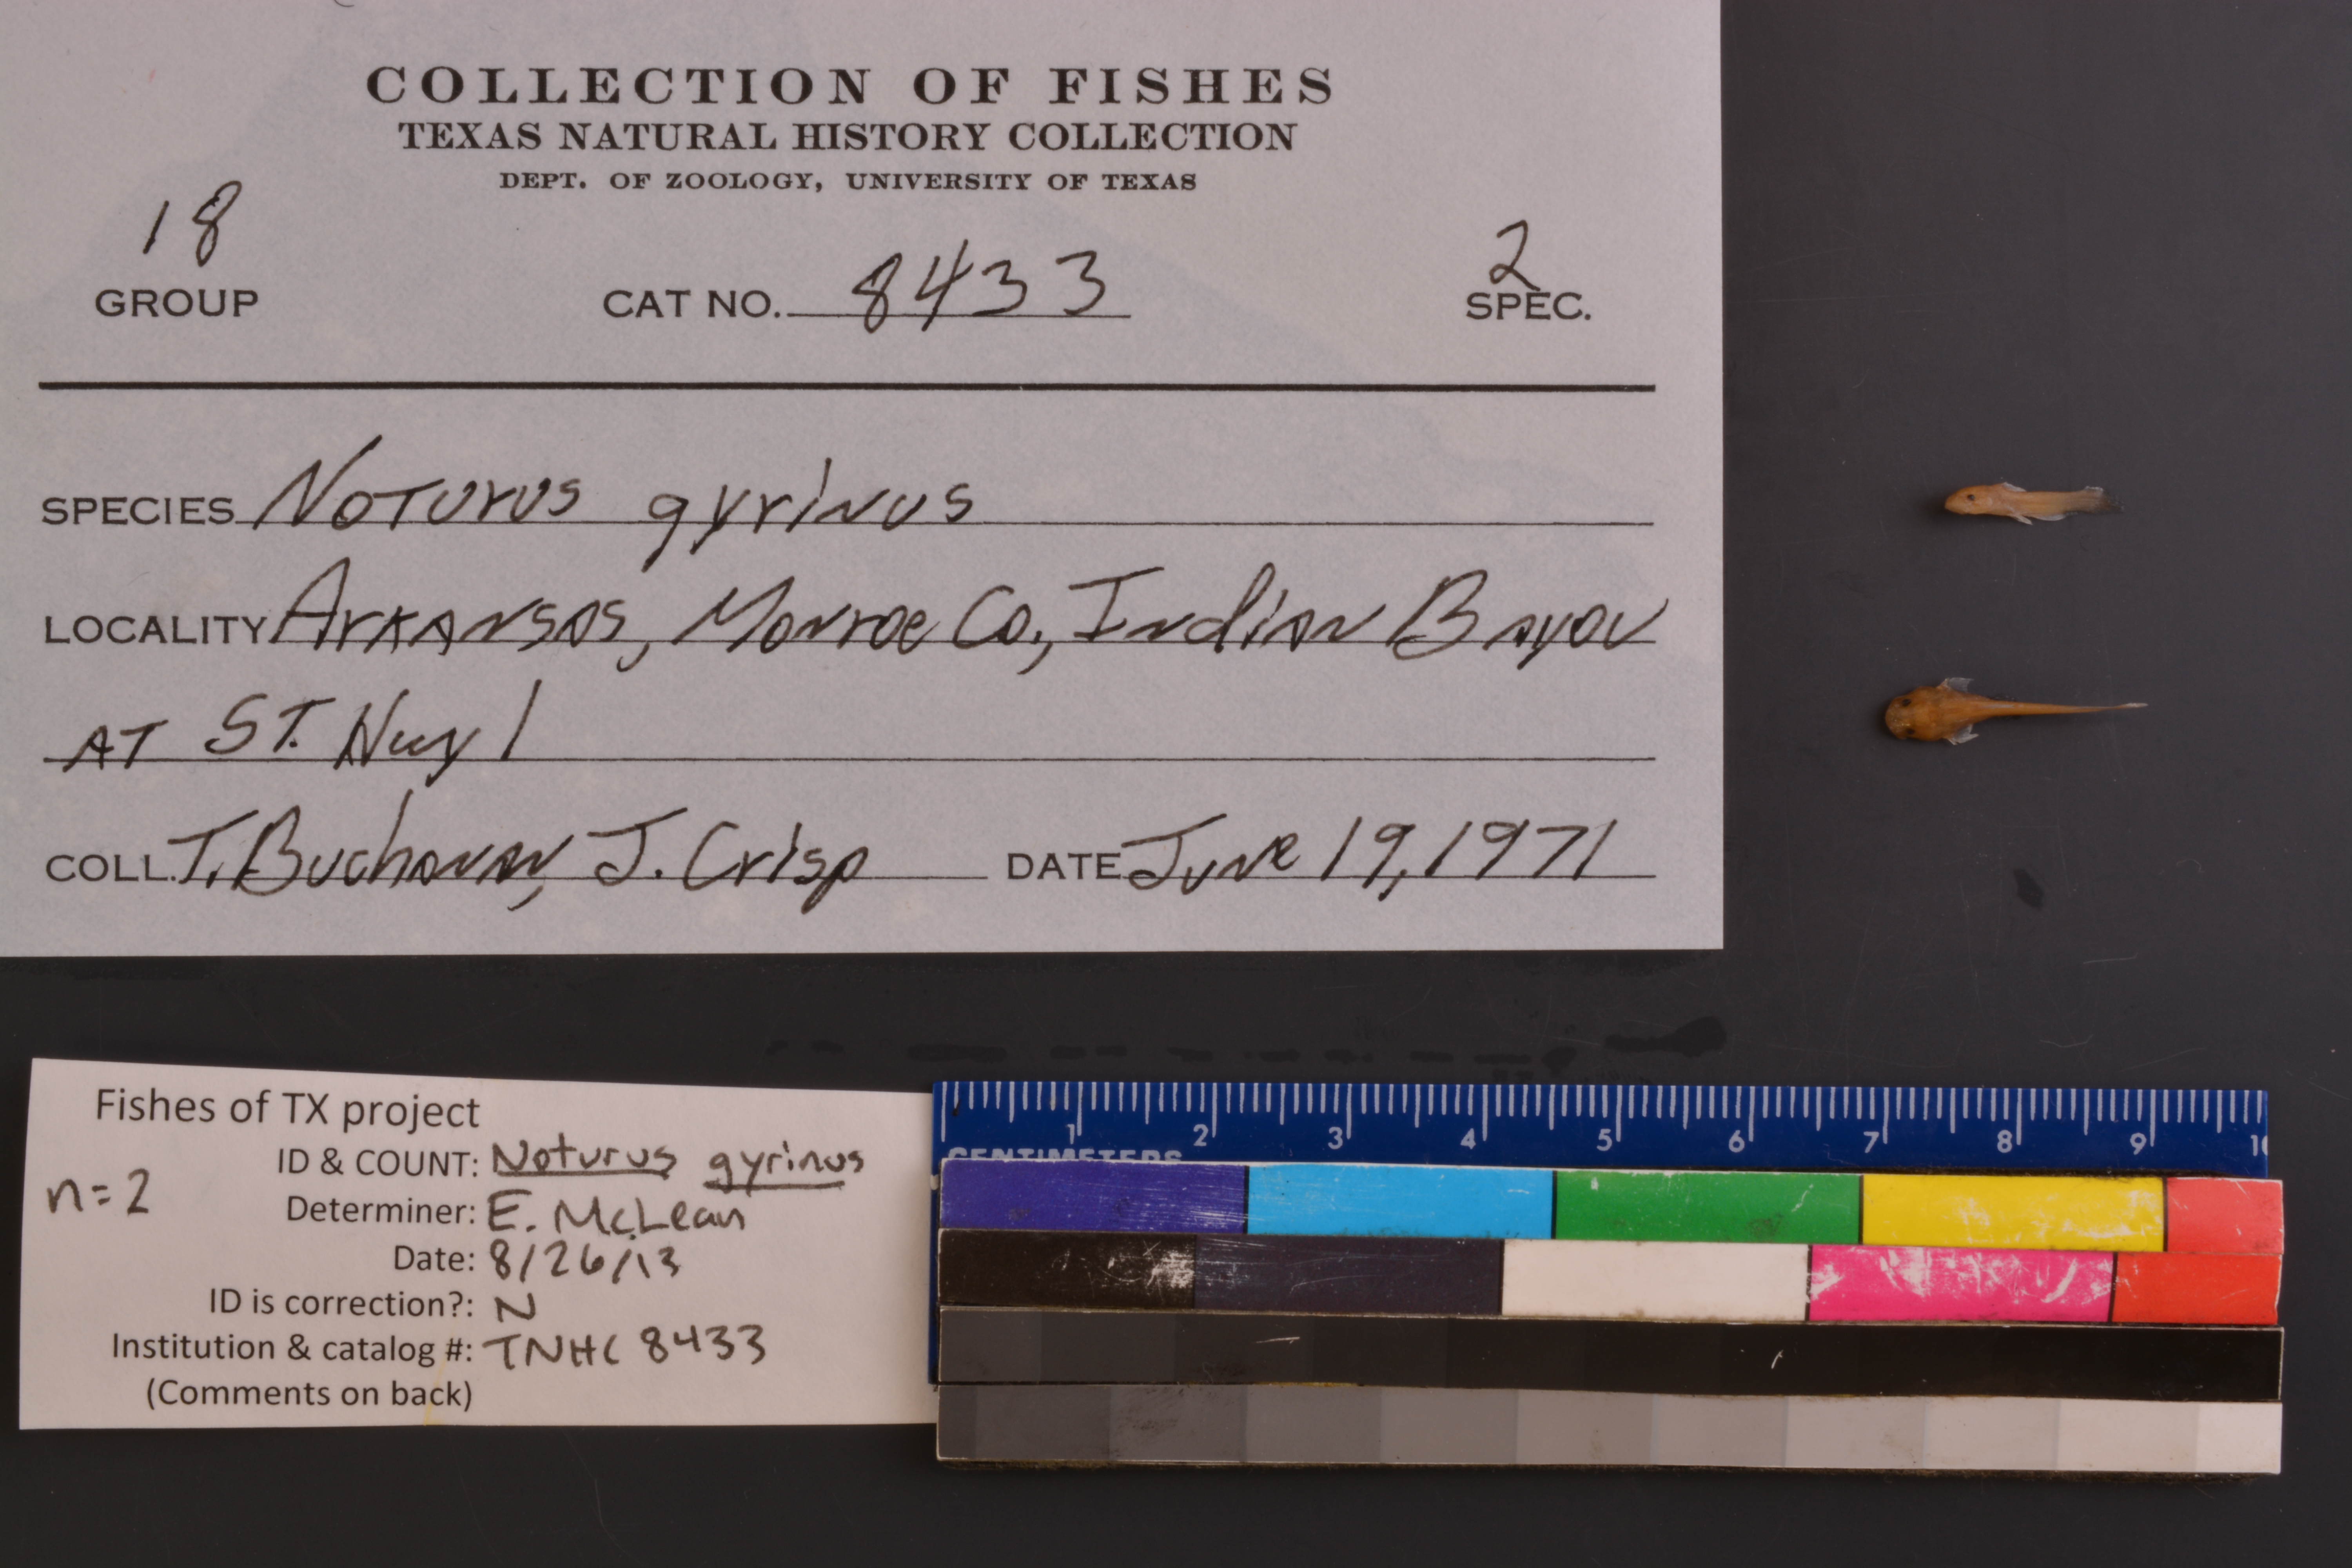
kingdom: Animalia
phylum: Chordata
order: Siluriformes
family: Ictaluridae
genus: Noturus
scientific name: Noturus gyrinus
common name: Tadpole madtom
